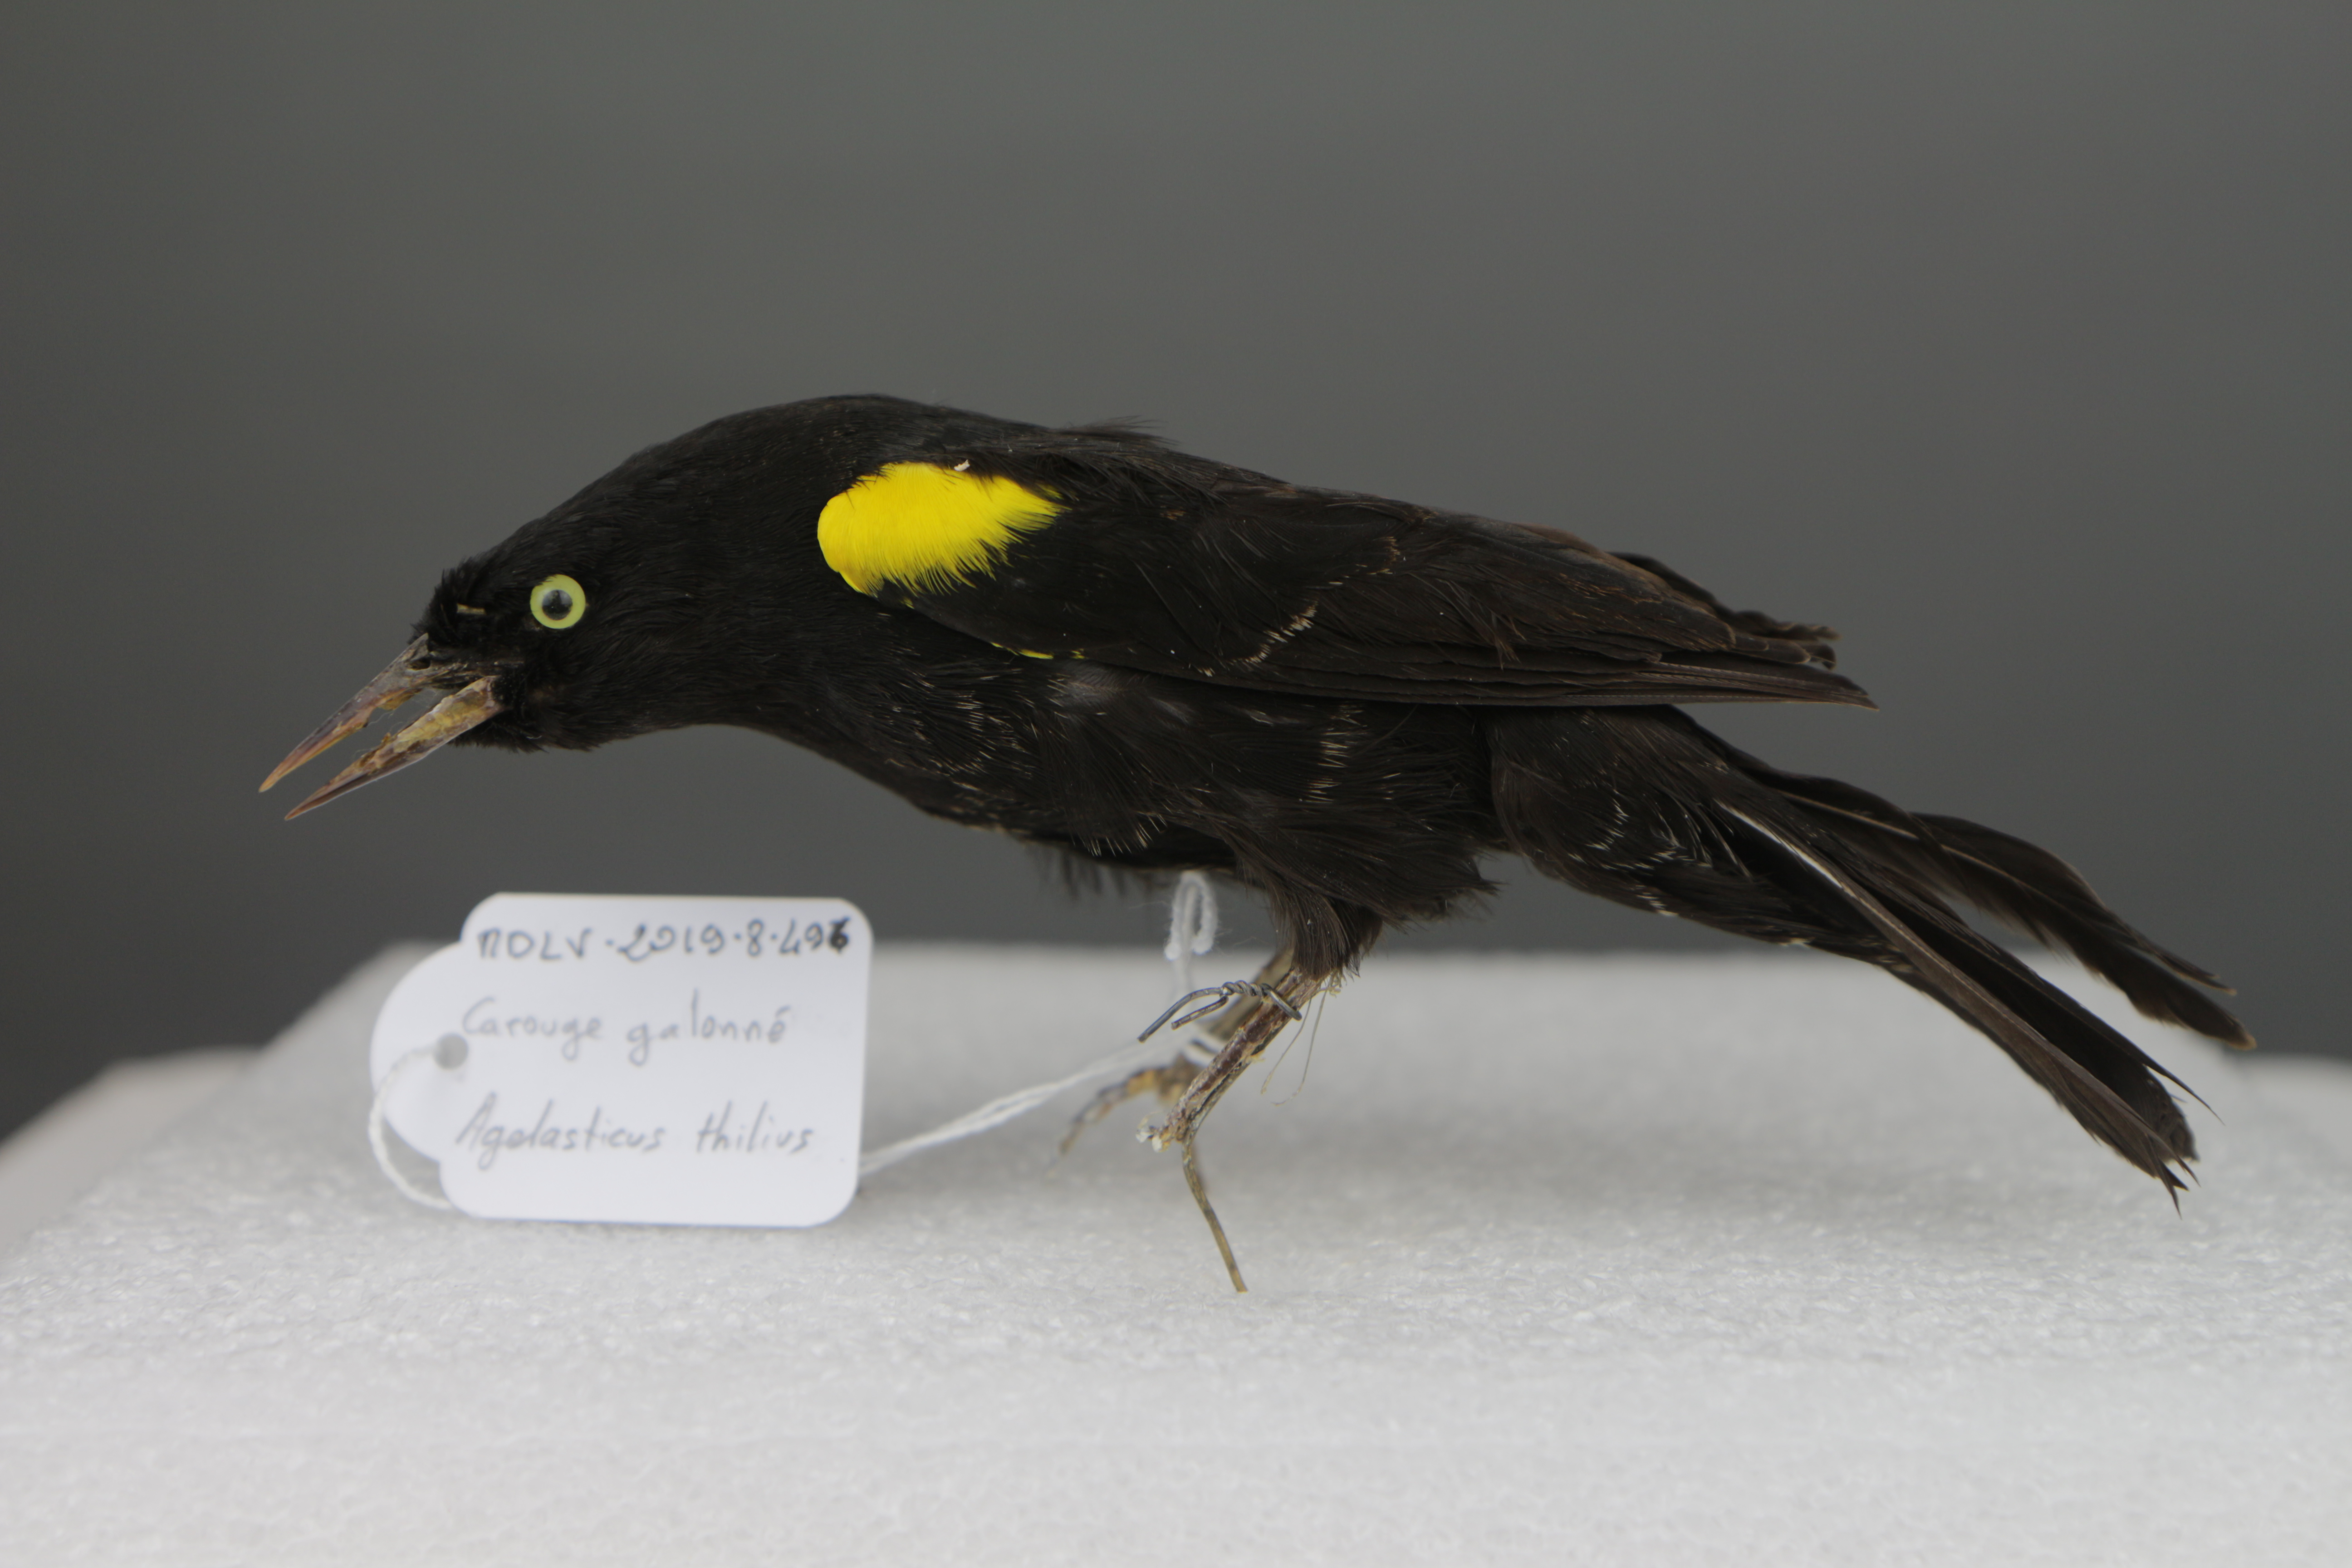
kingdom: Animalia
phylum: Chordata
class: Aves
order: Passeriformes
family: Icteridae
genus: Agelasticus
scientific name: Agelasticus thilius
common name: Yellow-winged blackbird
